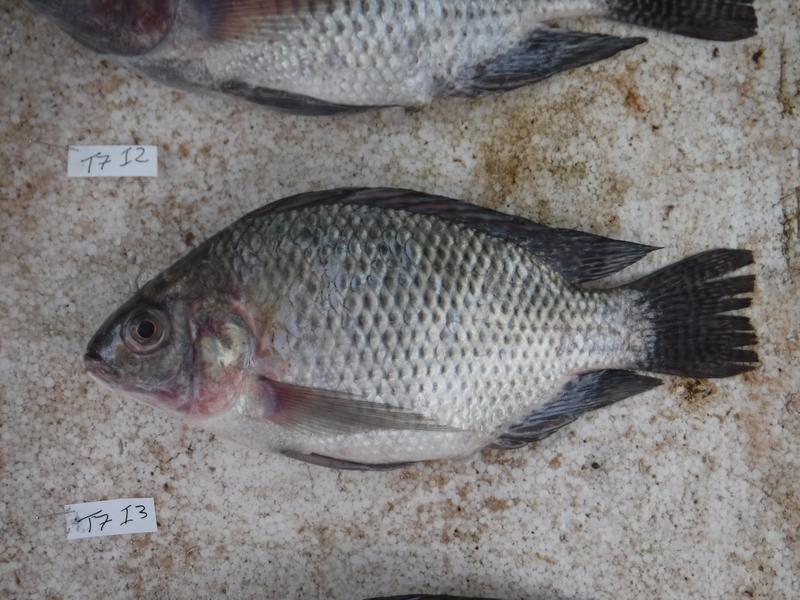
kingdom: Animalia
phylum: Chordata
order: Perciformes
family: Cichlidae
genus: Oreochromis
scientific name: Oreochromis niloticus
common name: Nile tilapia
